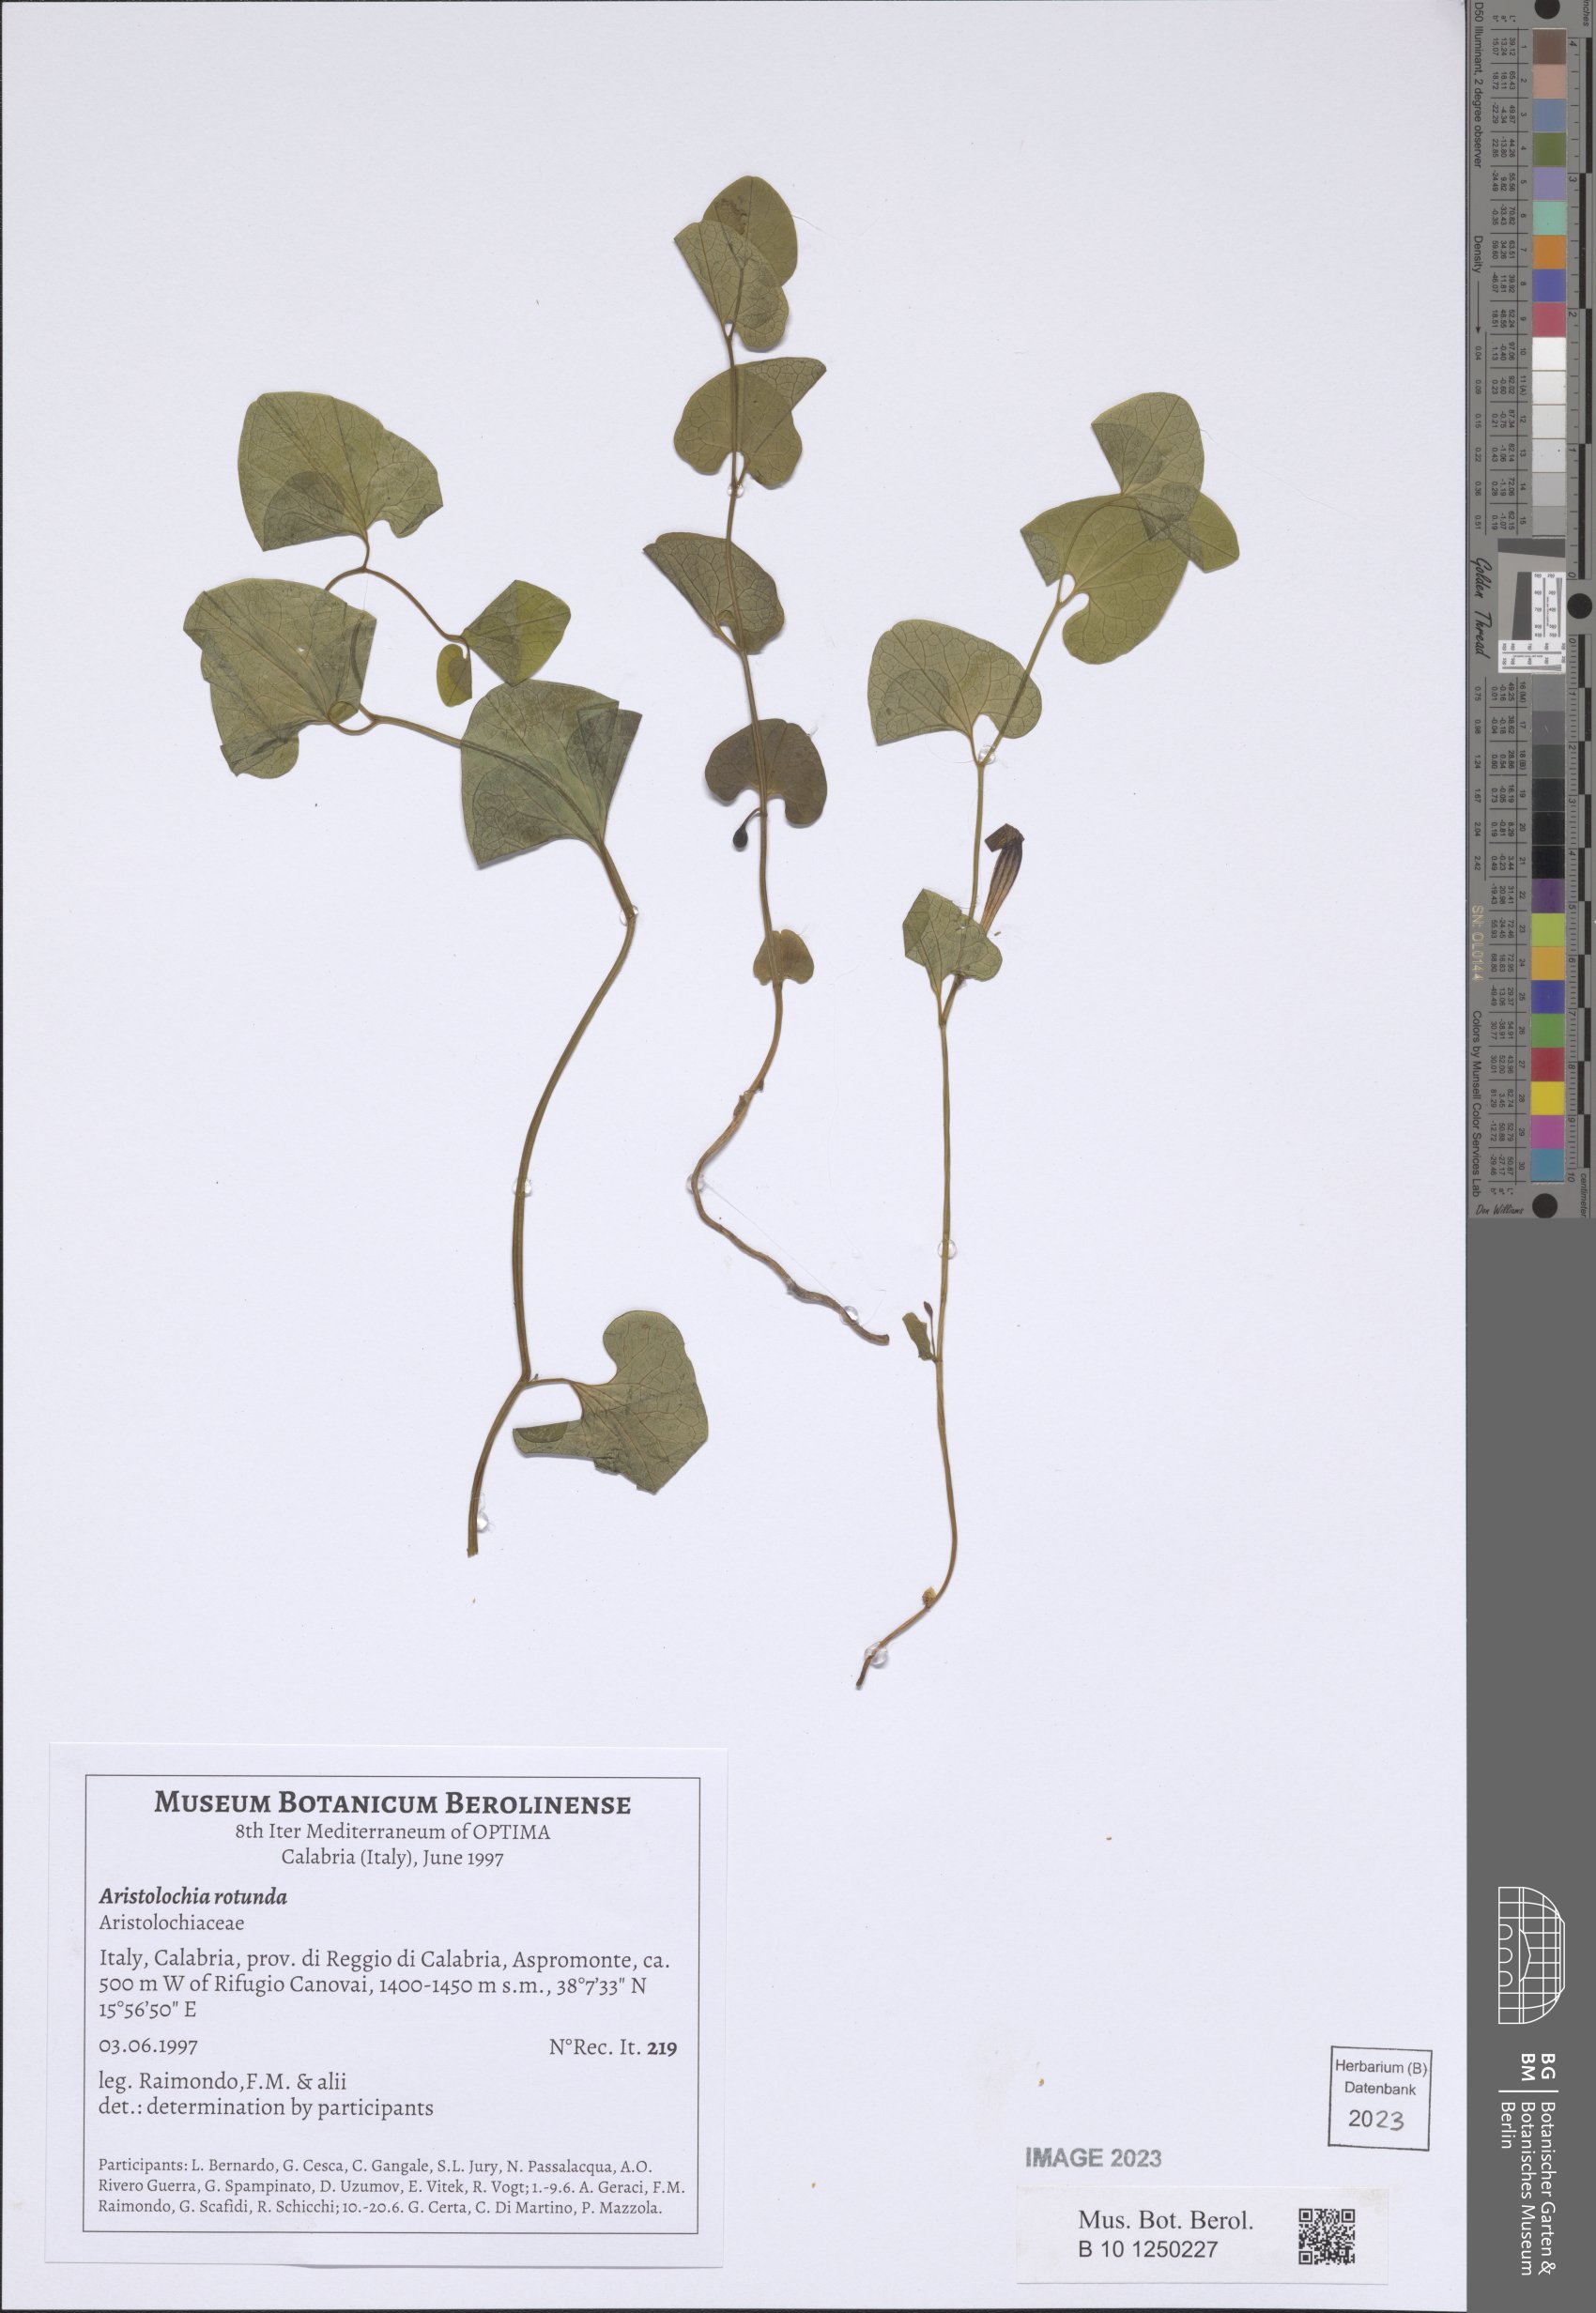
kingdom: Plantae
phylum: Tracheophyta
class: Magnoliopsida
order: Piperales
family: Aristolochiaceae
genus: Aristolochia
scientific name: Aristolochia rotunda
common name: Smearwort
